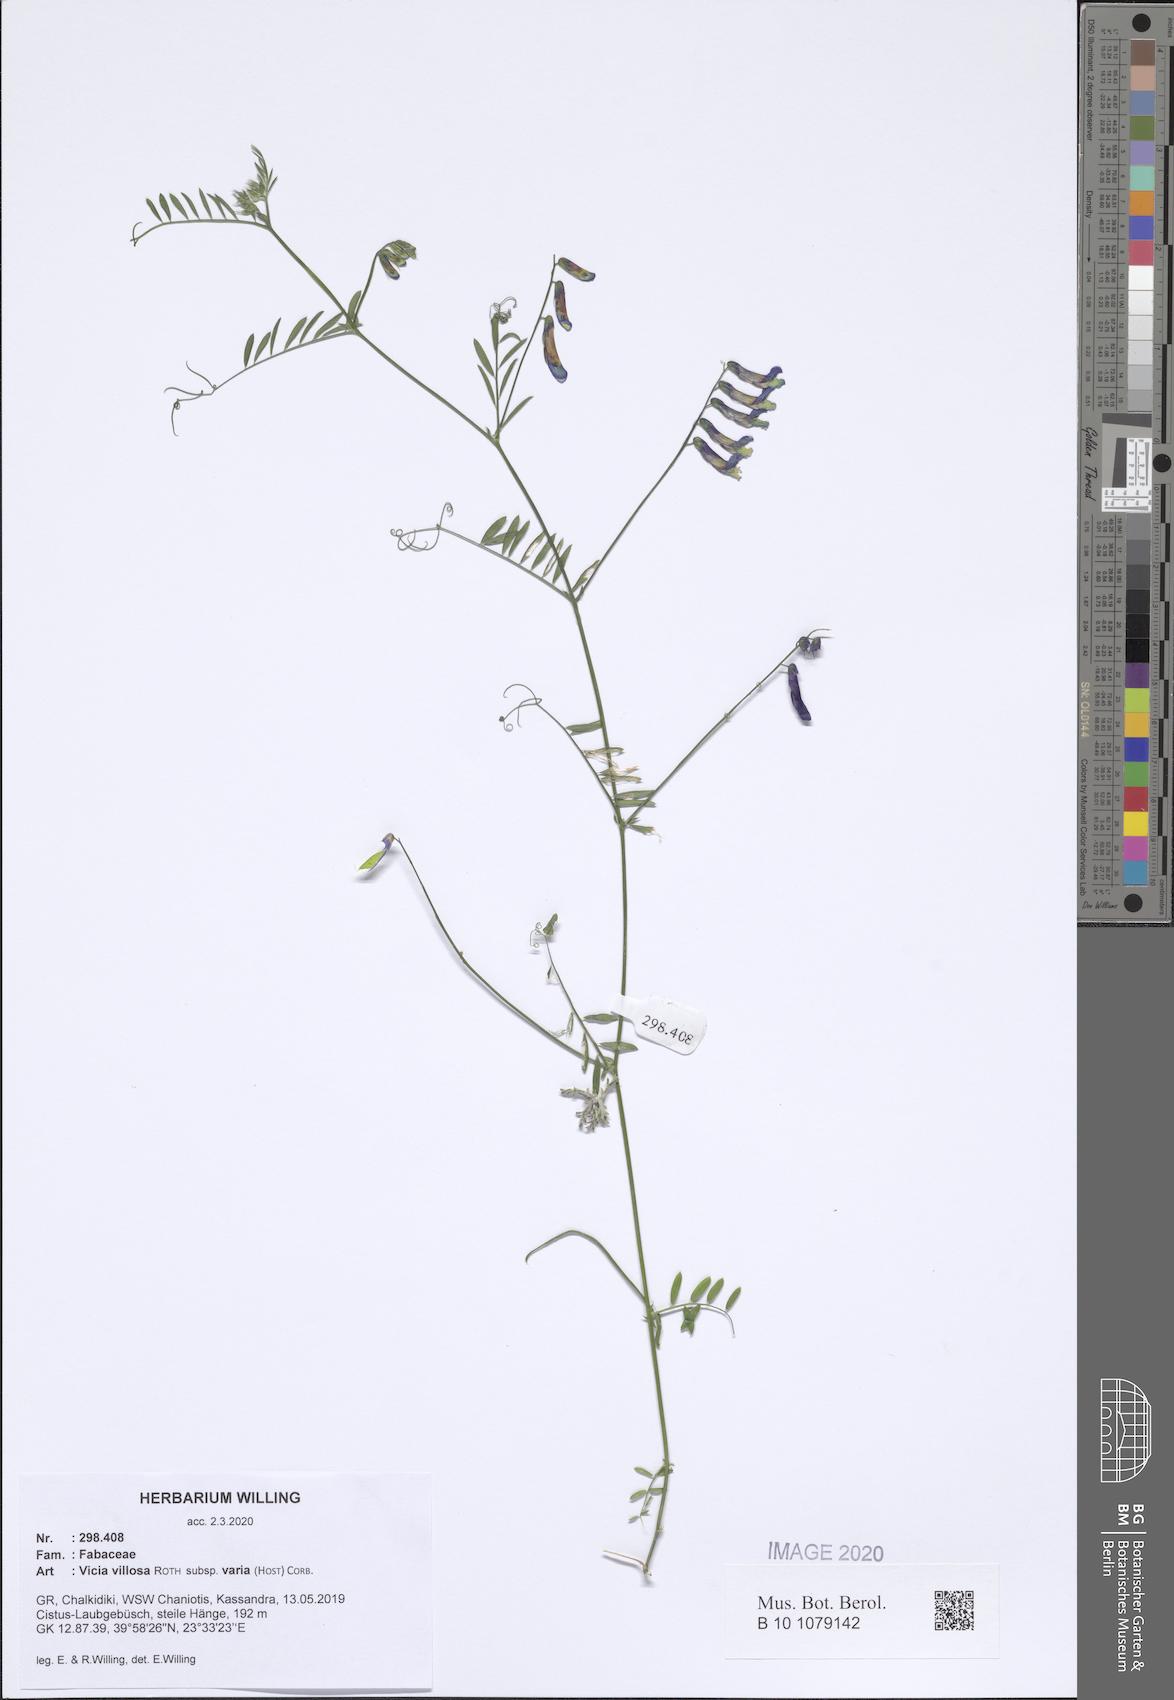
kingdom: Plantae
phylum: Tracheophyta
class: Magnoliopsida
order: Fabales
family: Fabaceae
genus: Vicia
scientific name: Vicia villosa
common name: Fodder vetch
